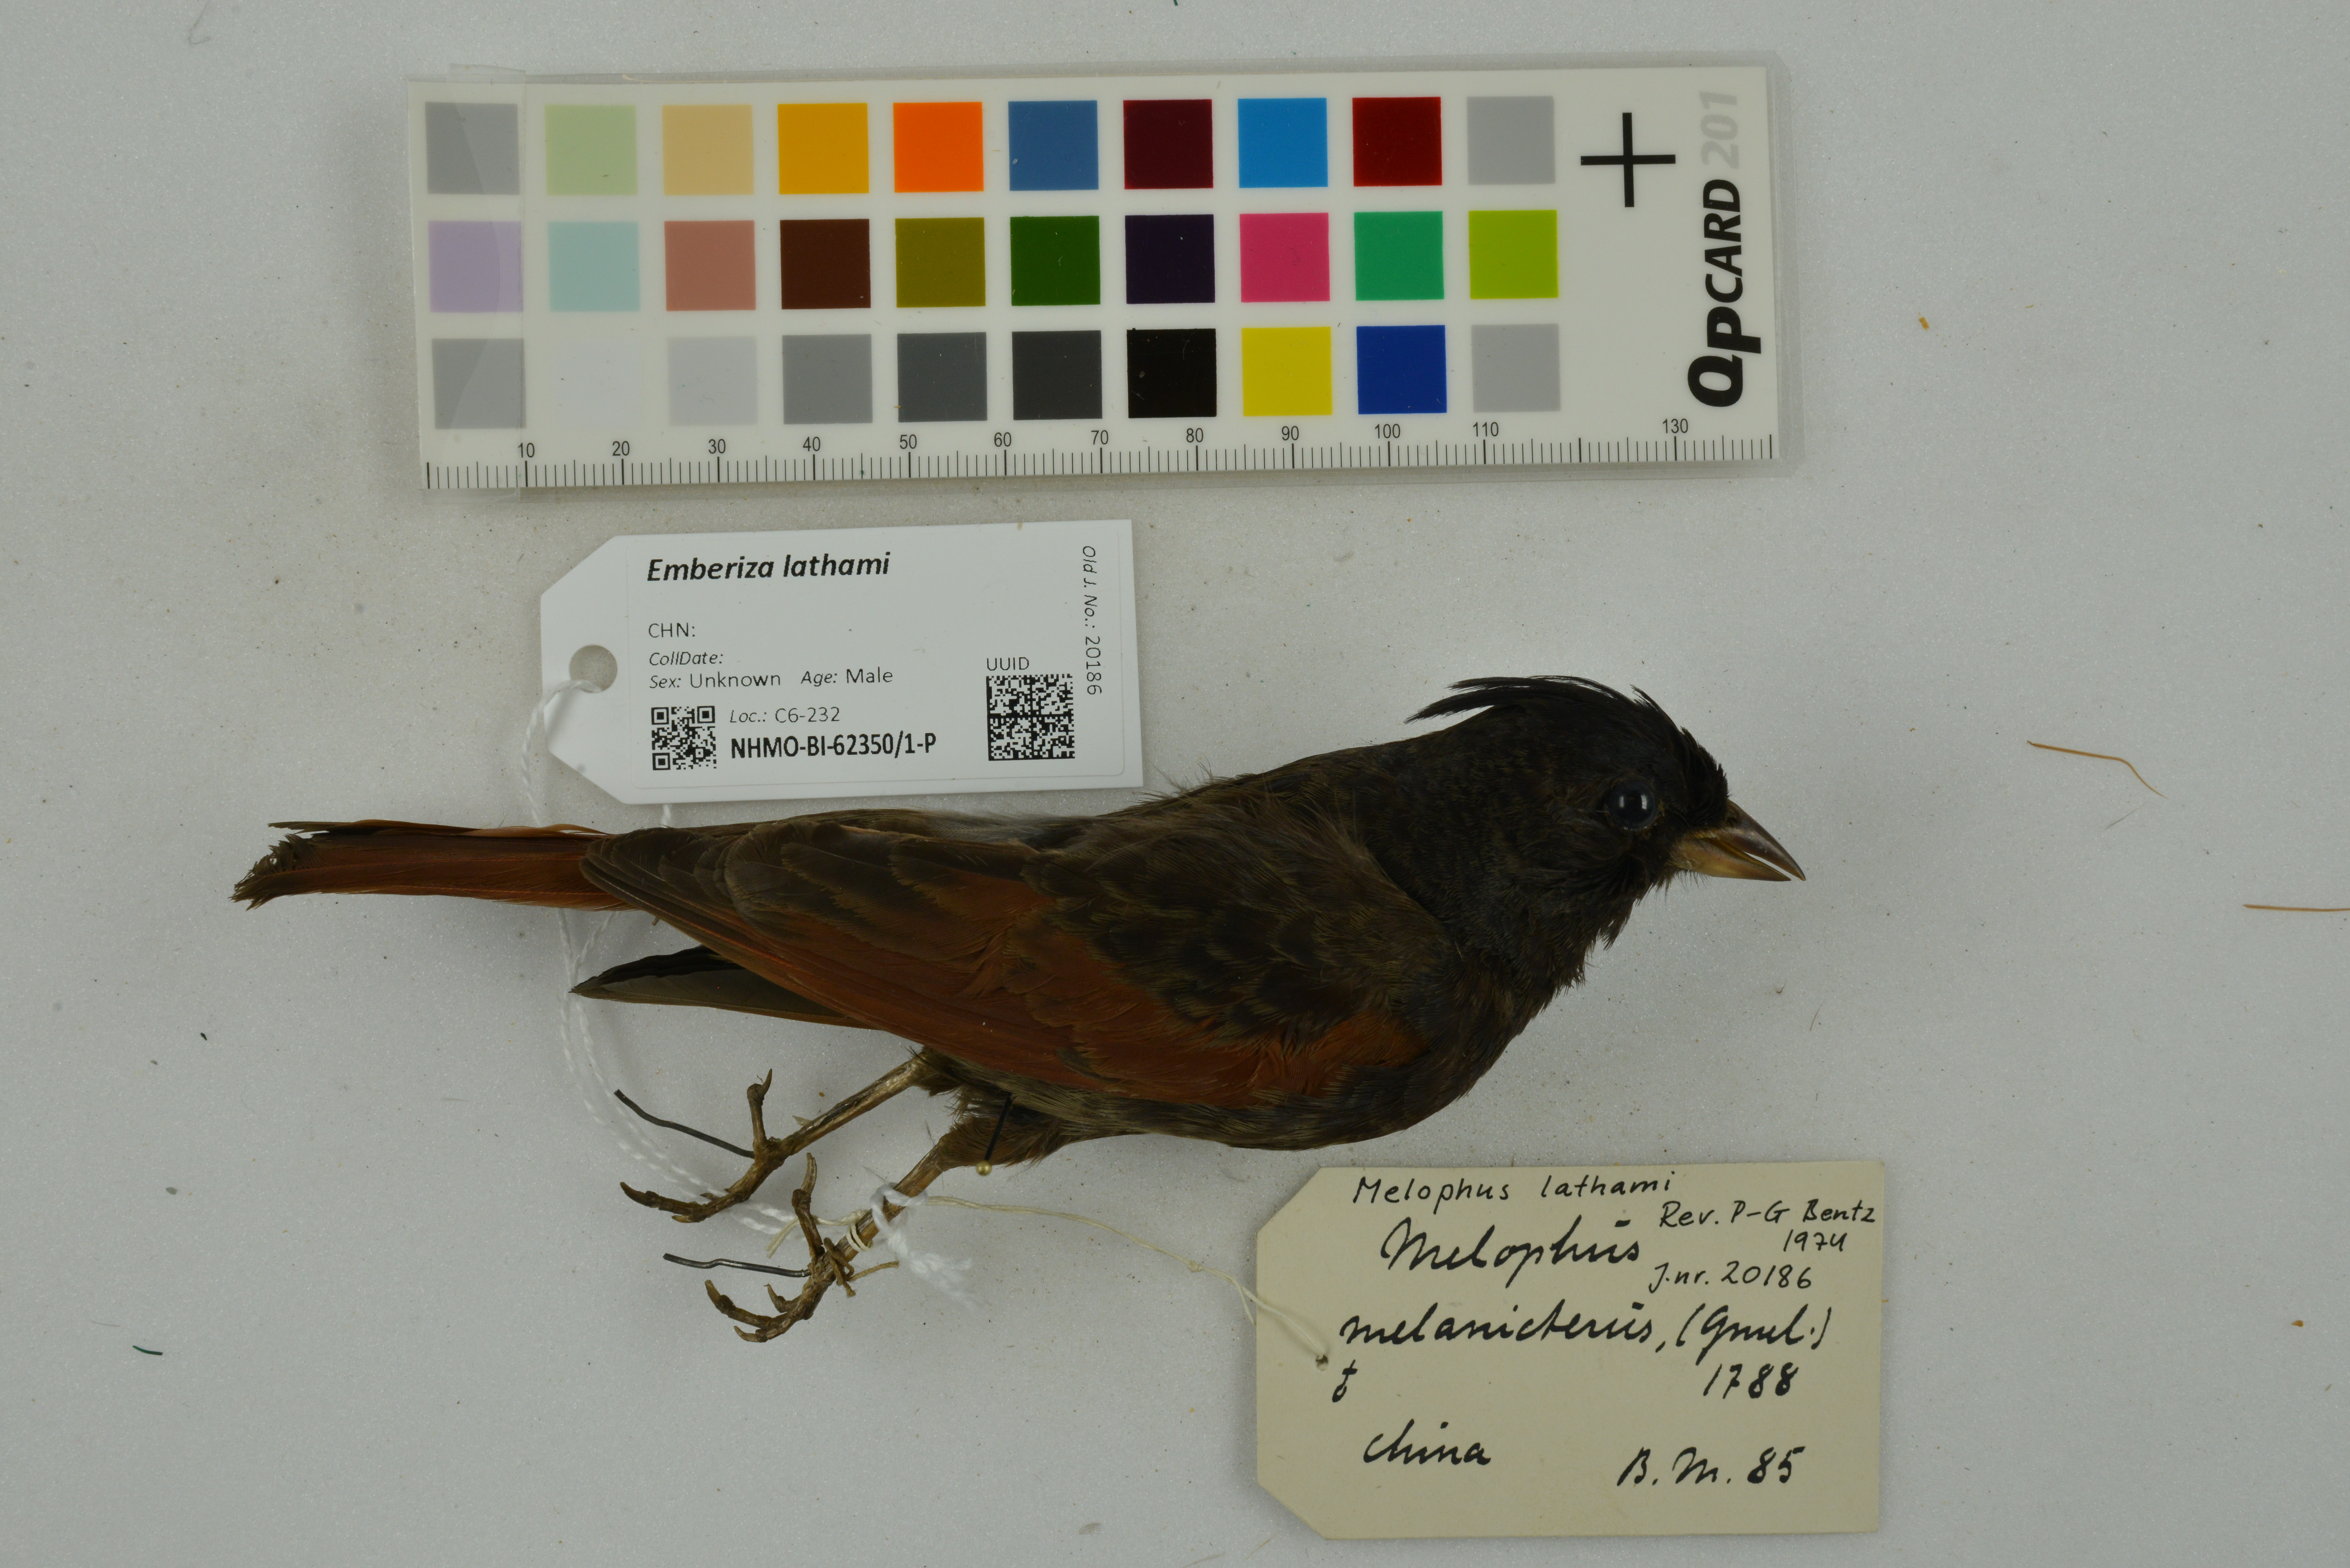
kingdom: Animalia
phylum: Chordata
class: Aves
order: Passeriformes
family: Emberizidae
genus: Emberiza
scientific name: Emberiza lathami
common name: Crested bunting
